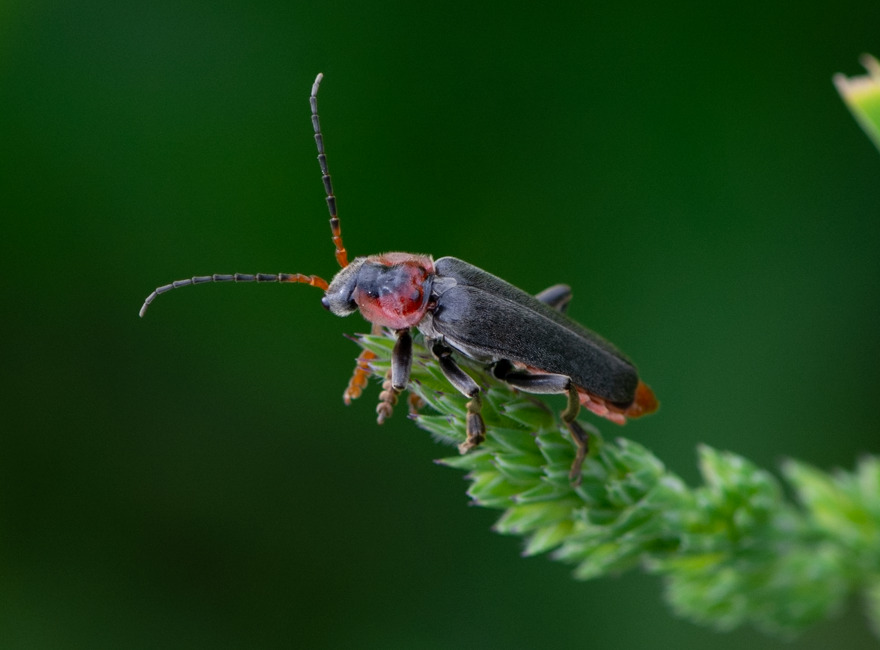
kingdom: Animalia
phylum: Arthropoda
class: Insecta
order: Coleoptera
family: Cantharidae
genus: Cantharis
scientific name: Cantharis fusca
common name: Stor blødvinge
